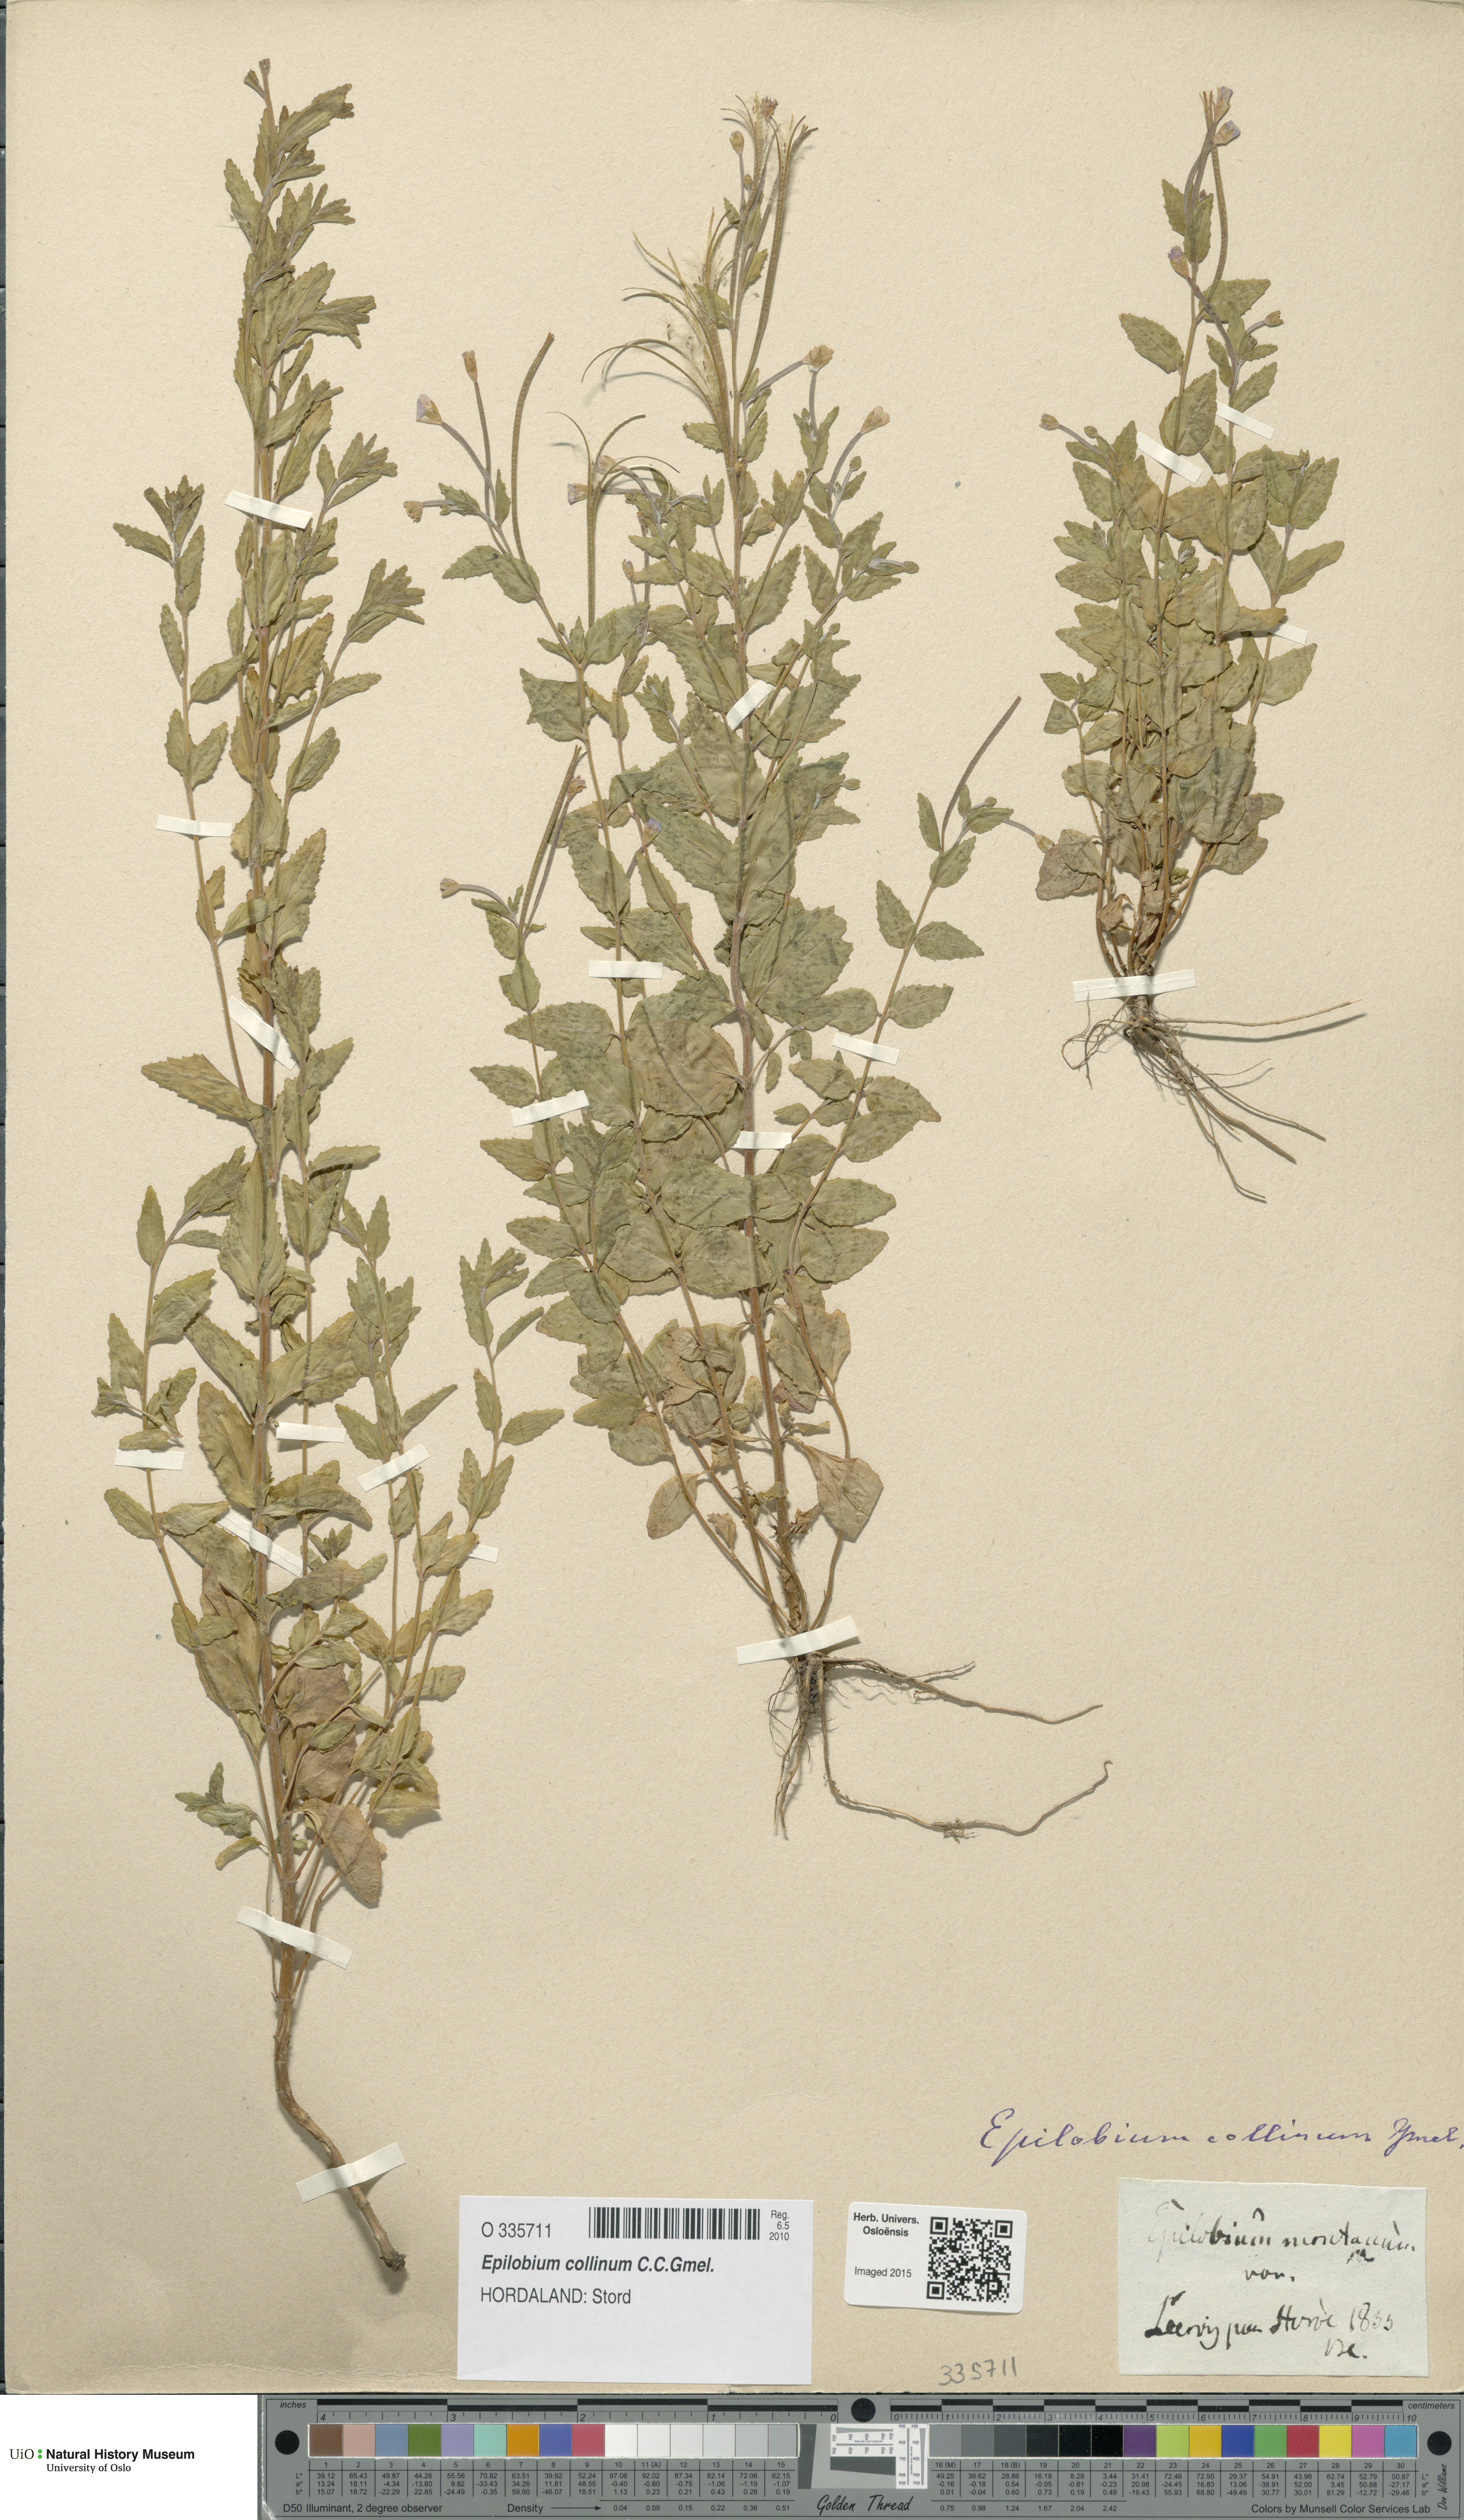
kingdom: Plantae
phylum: Tracheophyta
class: Magnoliopsida
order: Myrtales
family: Onagraceae
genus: Epilobium
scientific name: Epilobium collinum
